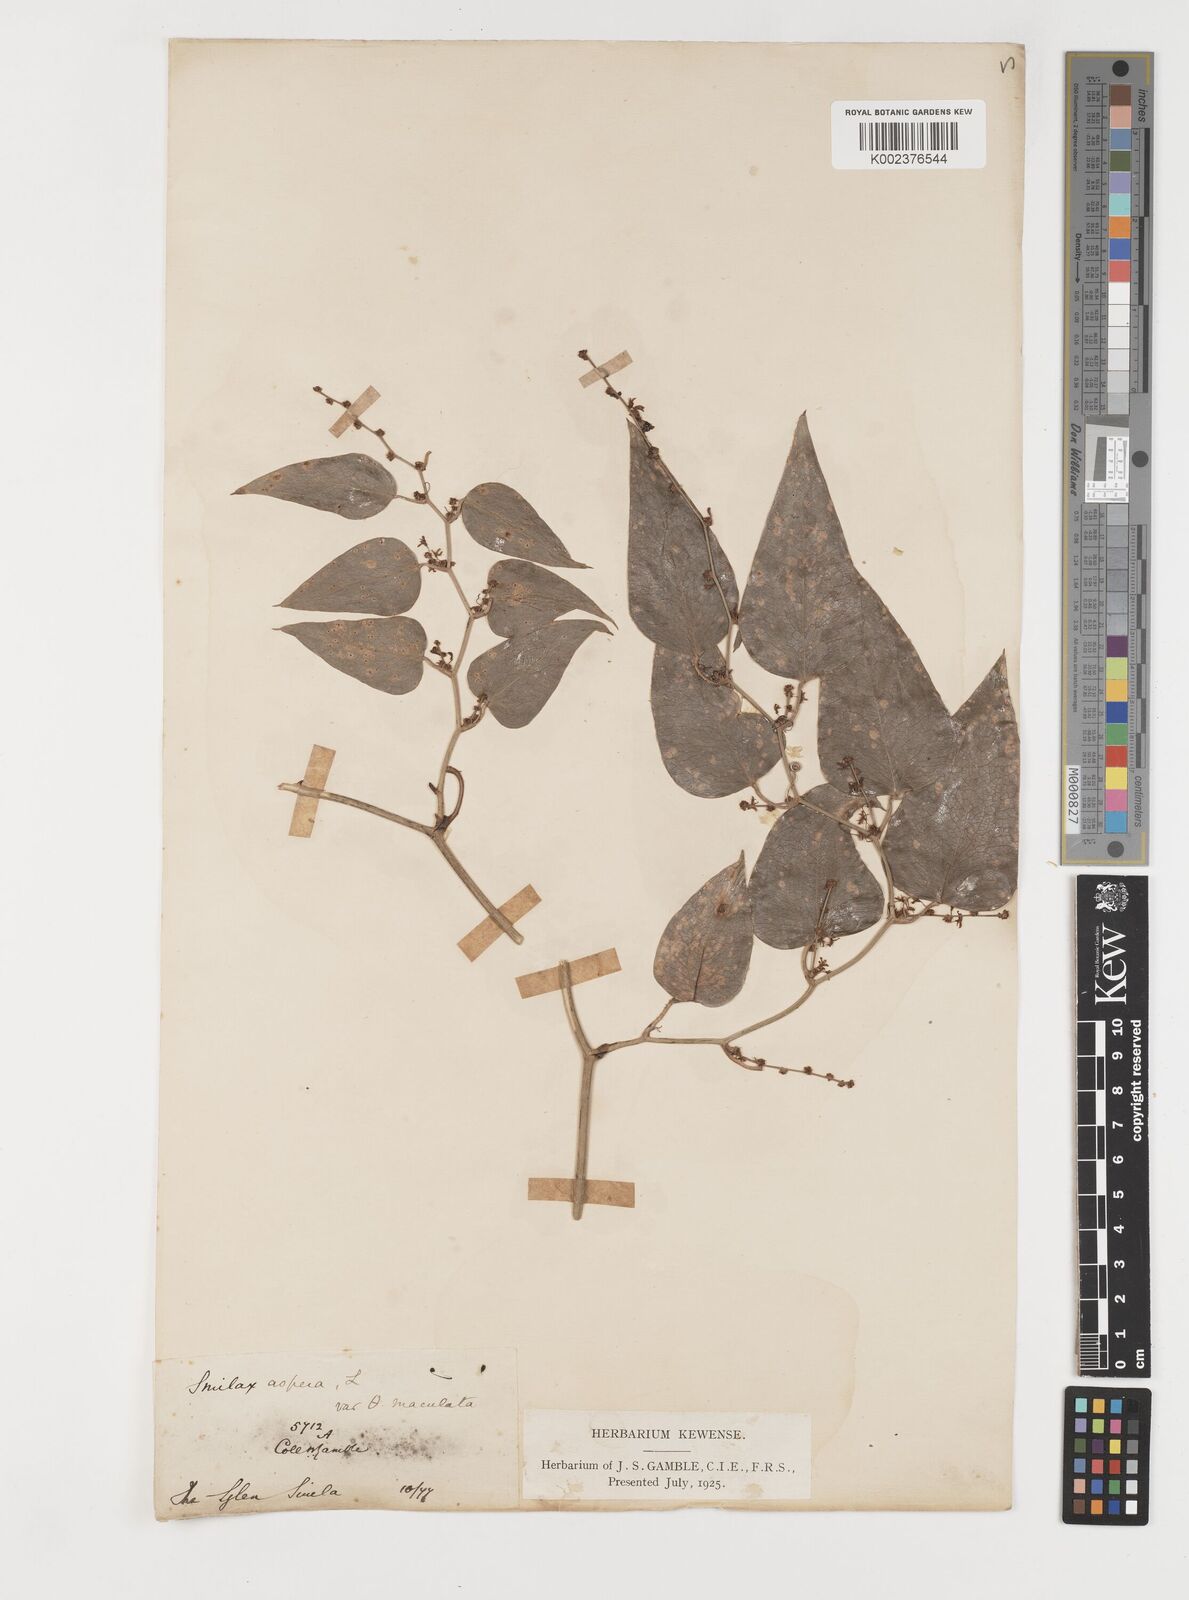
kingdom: Plantae
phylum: Tracheophyta
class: Liliopsida
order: Liliales
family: Smilacaceae
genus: Smilax
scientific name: Smilax aspera
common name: Common smilax
